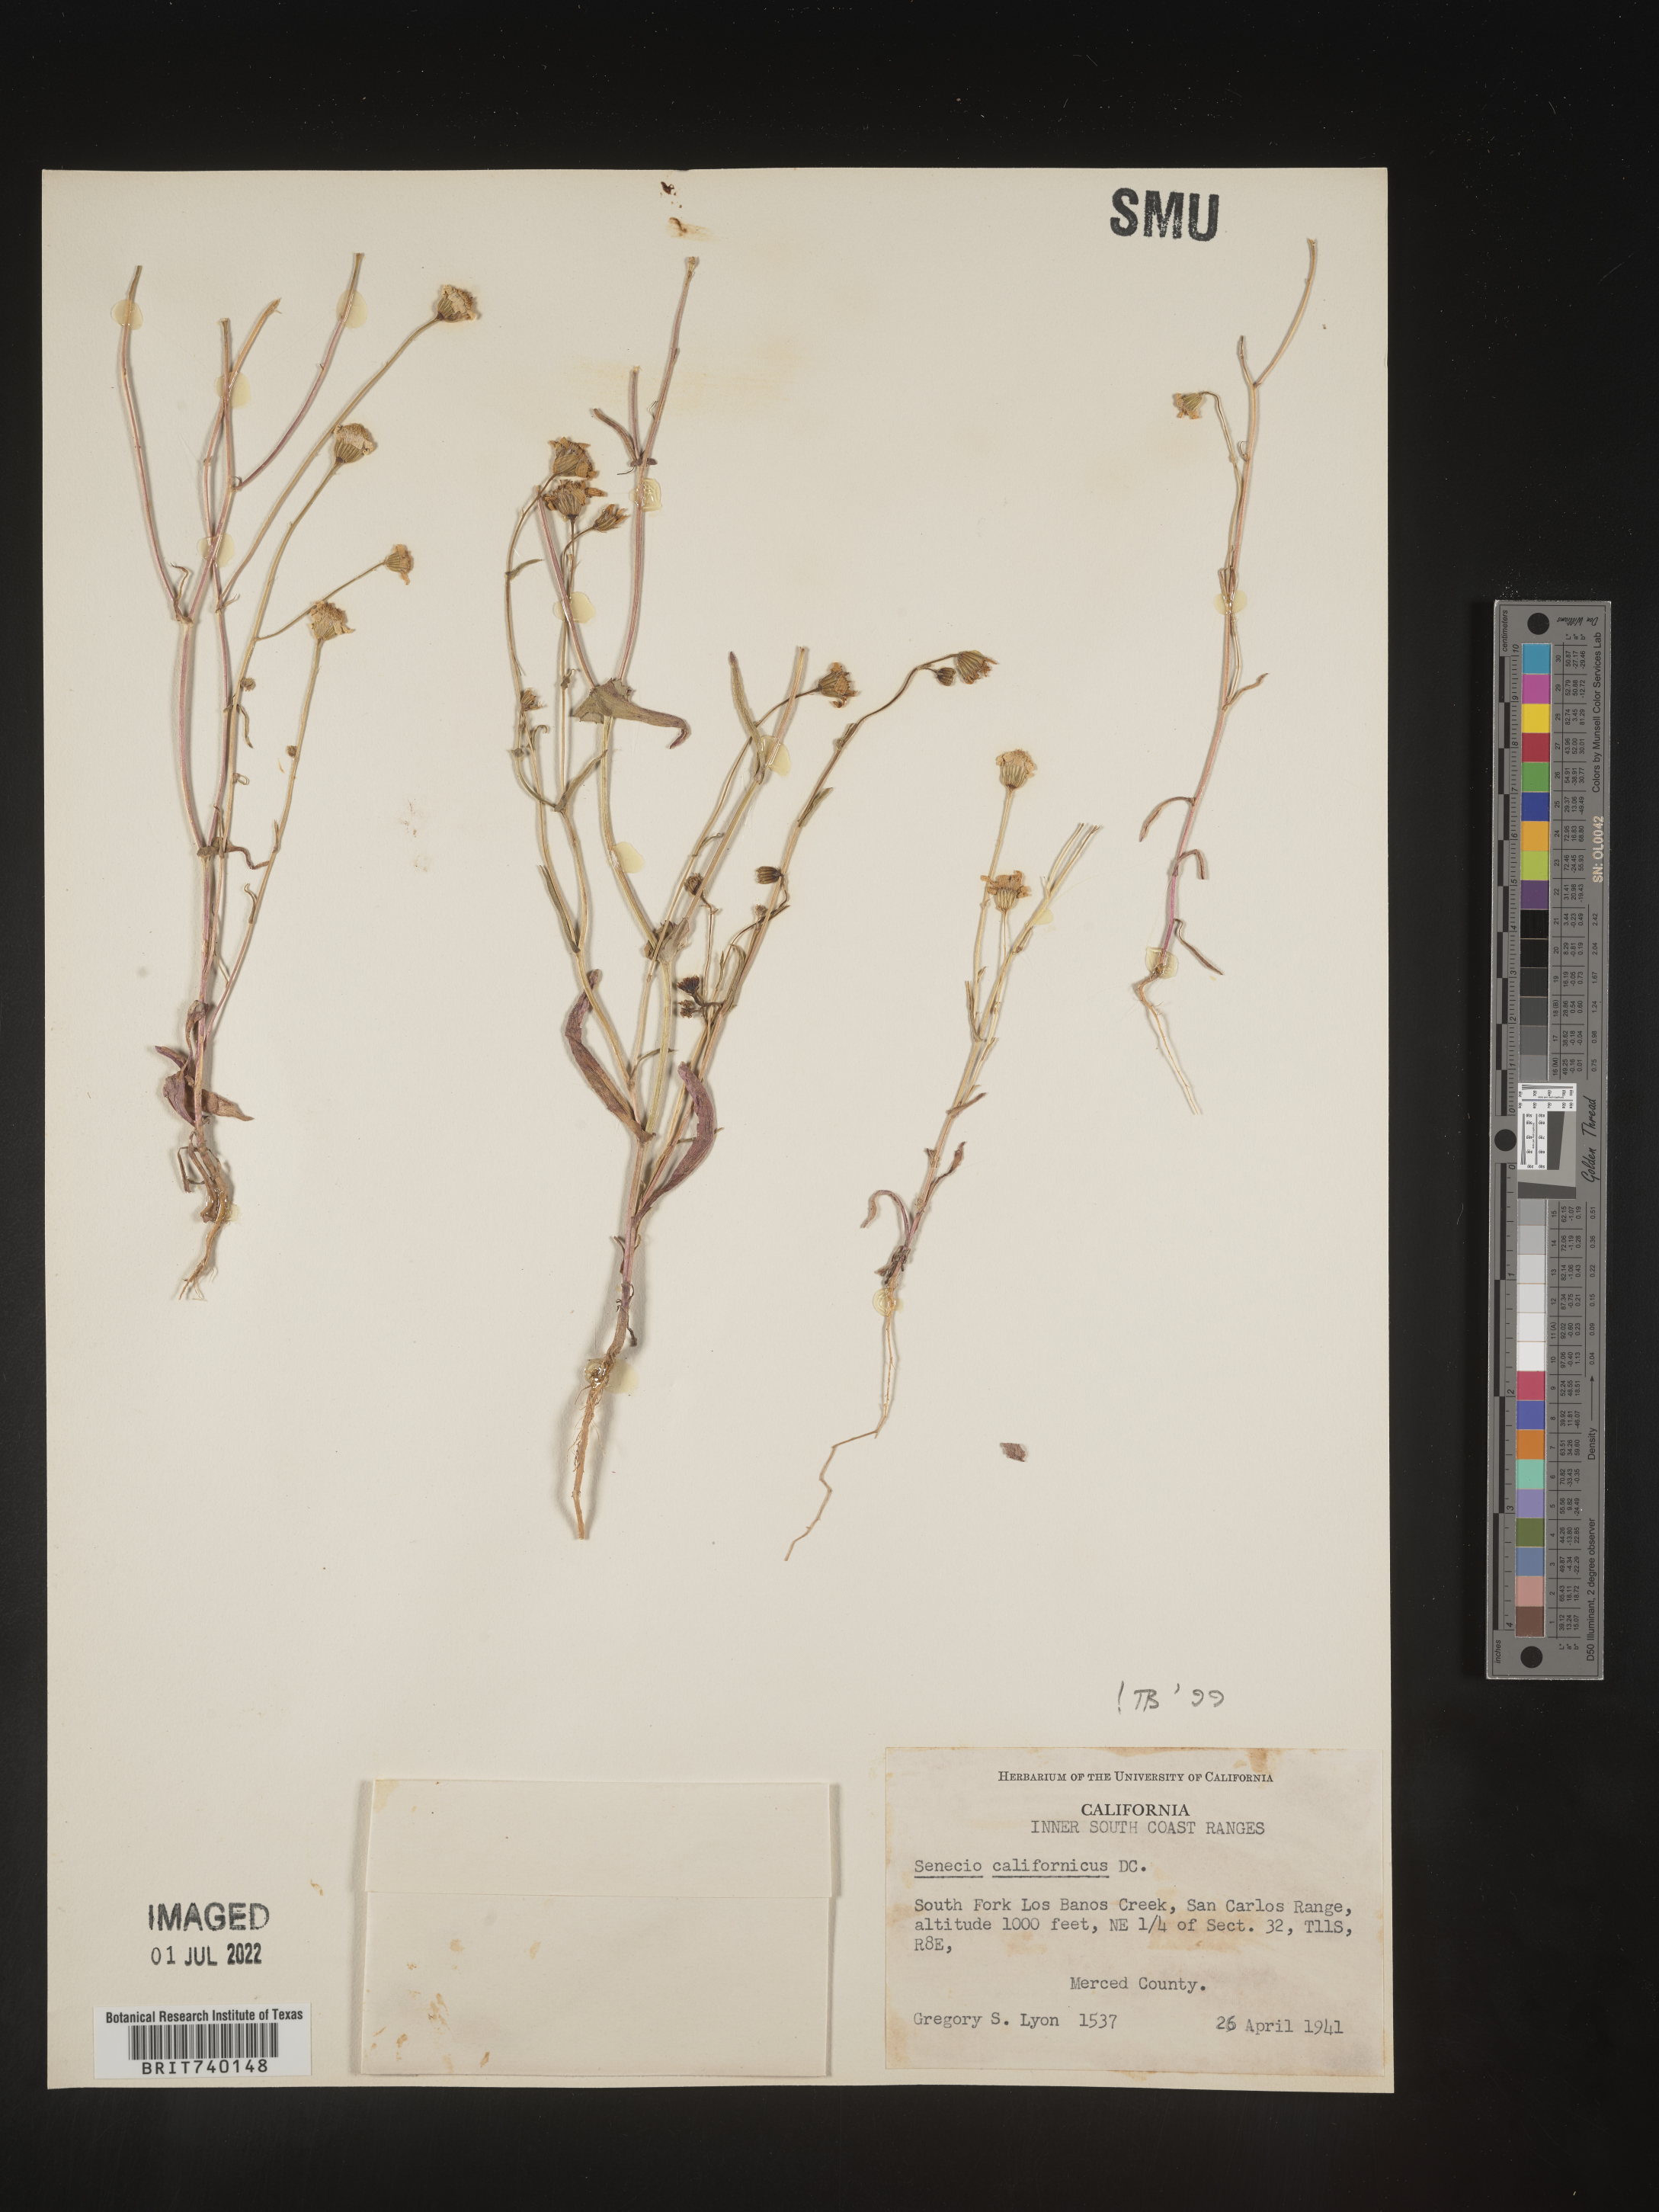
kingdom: Plantae
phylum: Tracheophyta
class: Magnoliopsida
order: Asterales
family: Asteraceae
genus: Senecio
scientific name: Senecio californicus
